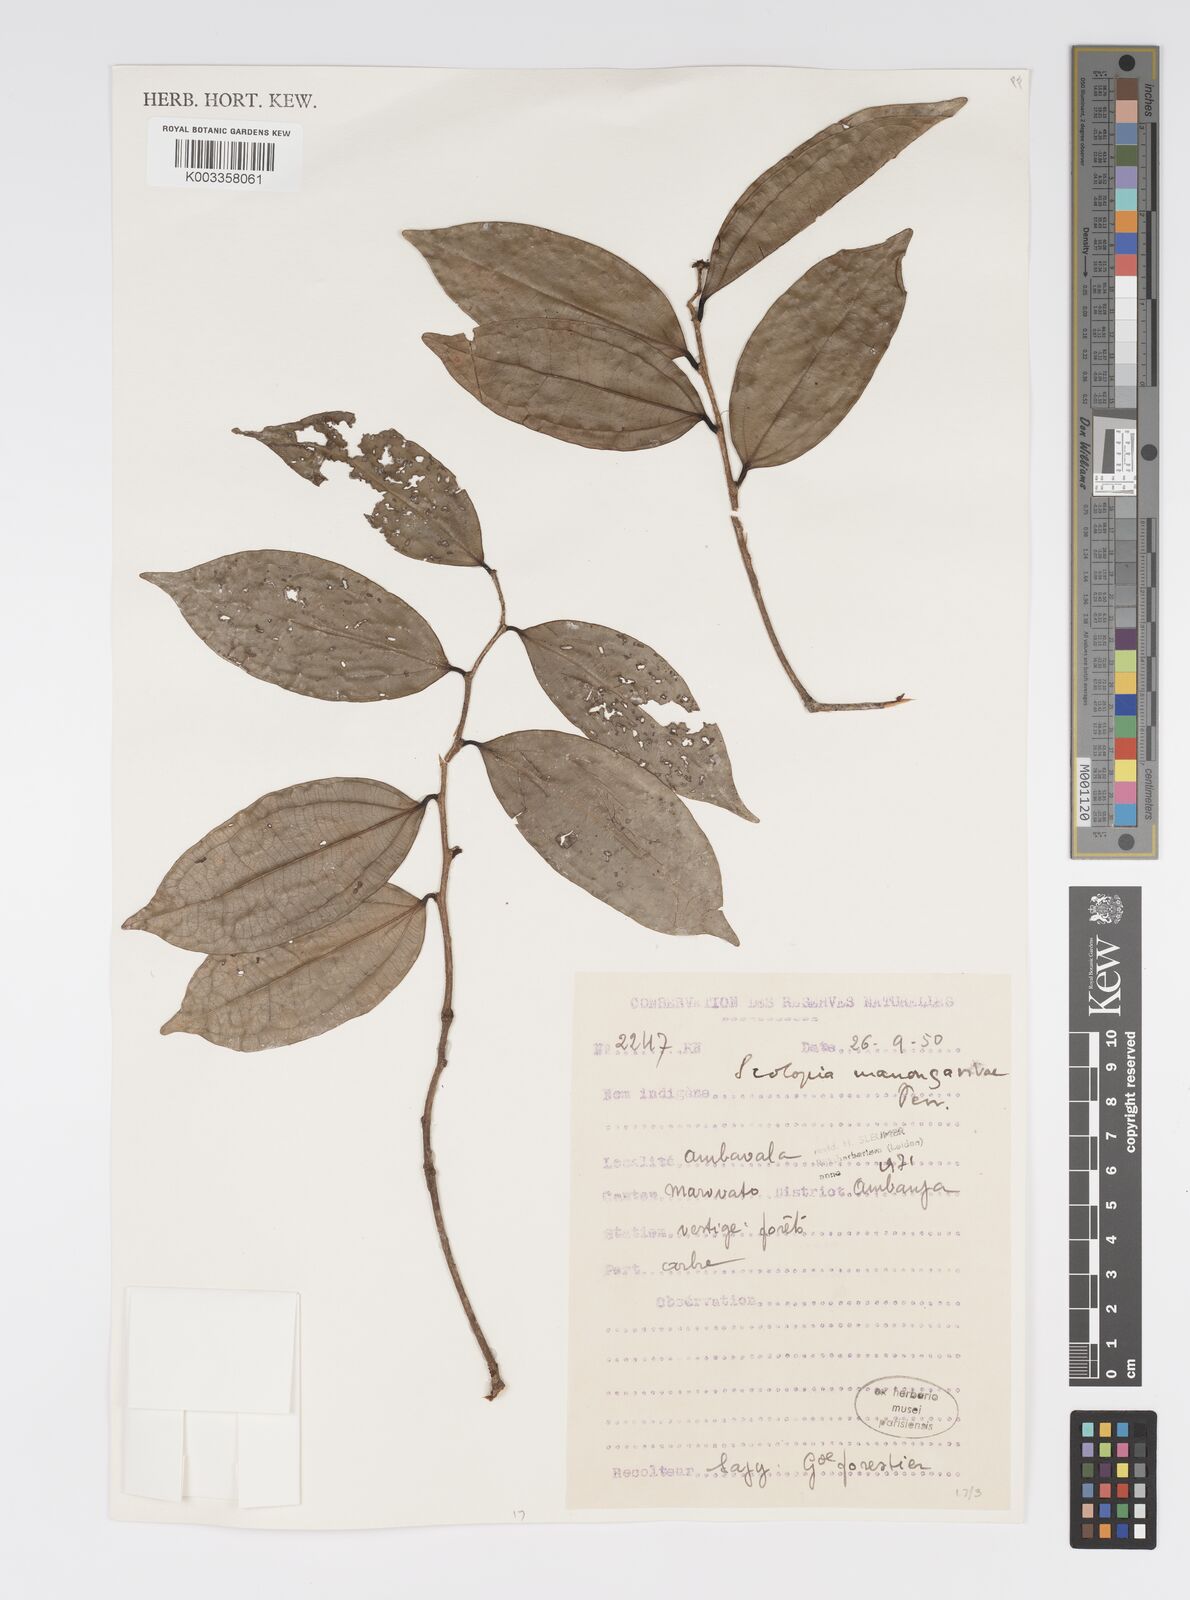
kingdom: Plantae
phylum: Tracheophyta
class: Magnoliopsida
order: Malpighiales
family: Salicaceae
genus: Scolopia
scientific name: Scolopia manongarivae
